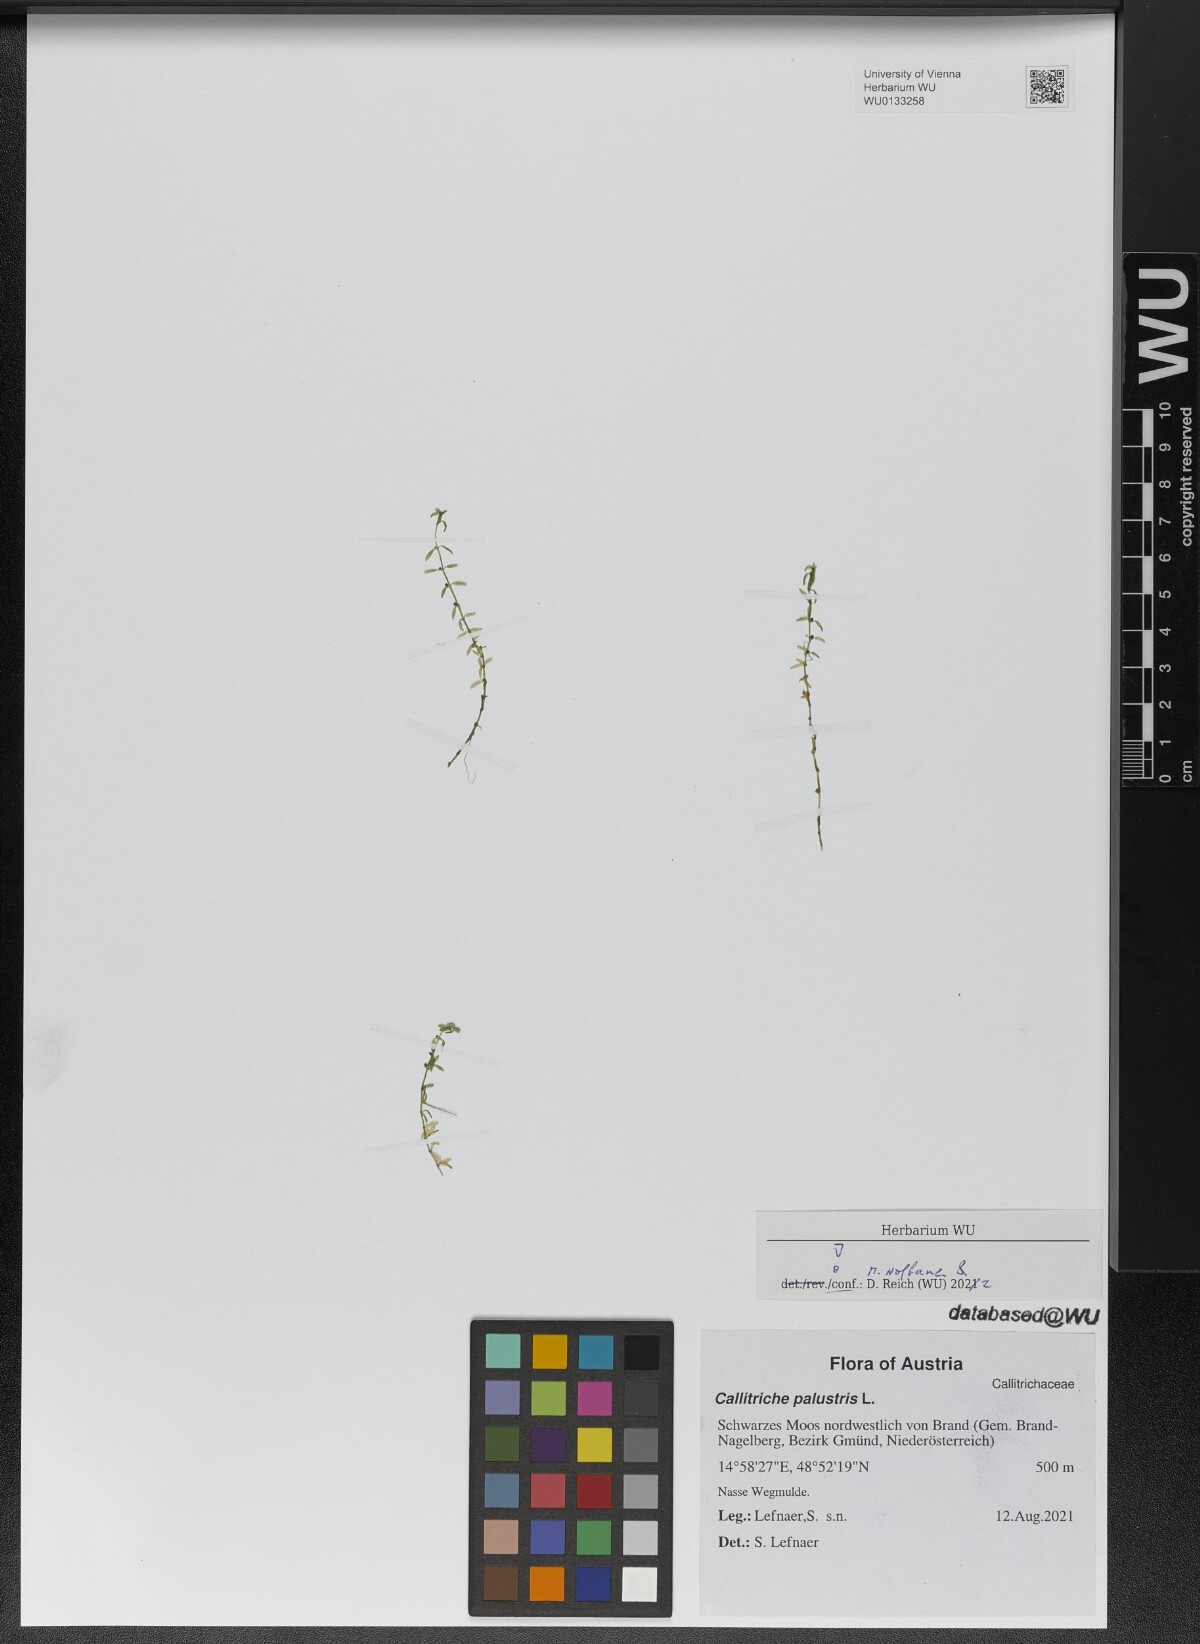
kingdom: Plantae
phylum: Tracheophyta
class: Magnoliopsida
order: Lamiales
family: Plantaginaceae
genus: Callitriche
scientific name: Callitriche palustris
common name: Spring water-starwort
